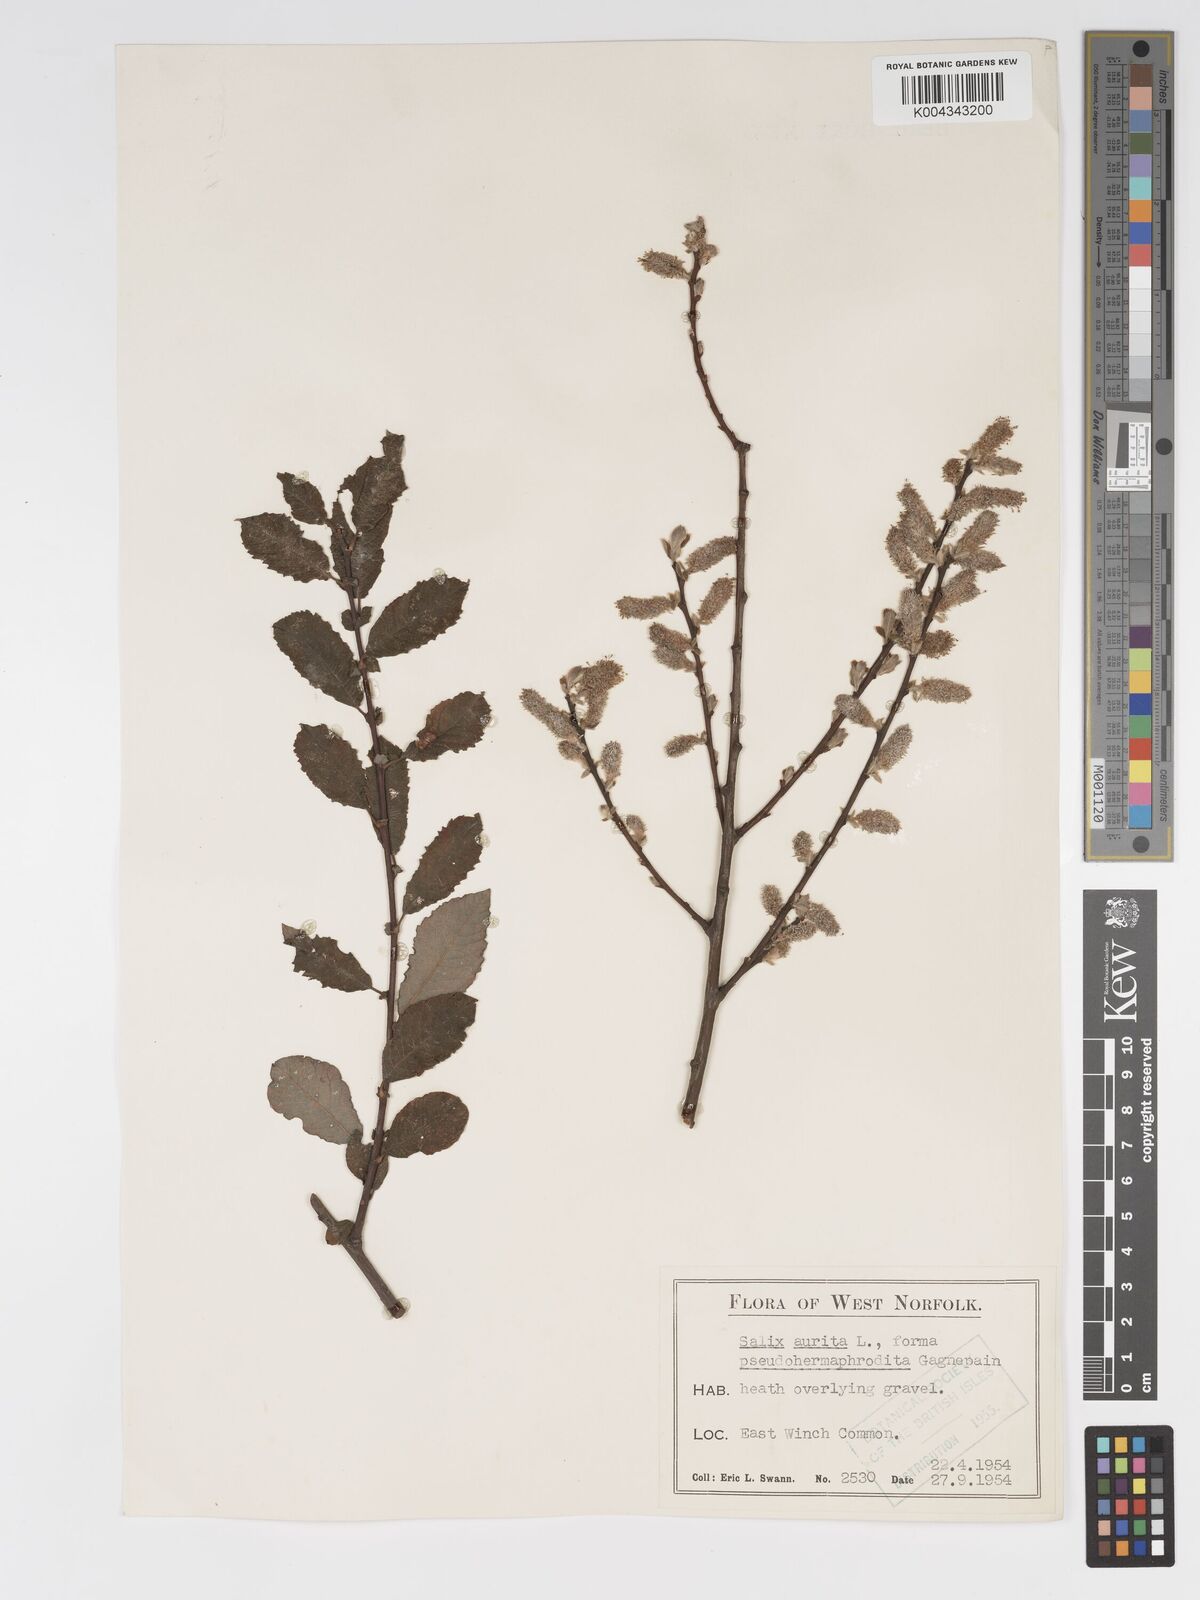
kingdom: Plantae
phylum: Tracheophyta
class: Magnoliopsida
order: Malpighiales
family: Salicaceae
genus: Salix
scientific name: Salix aurita
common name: Eared willow
